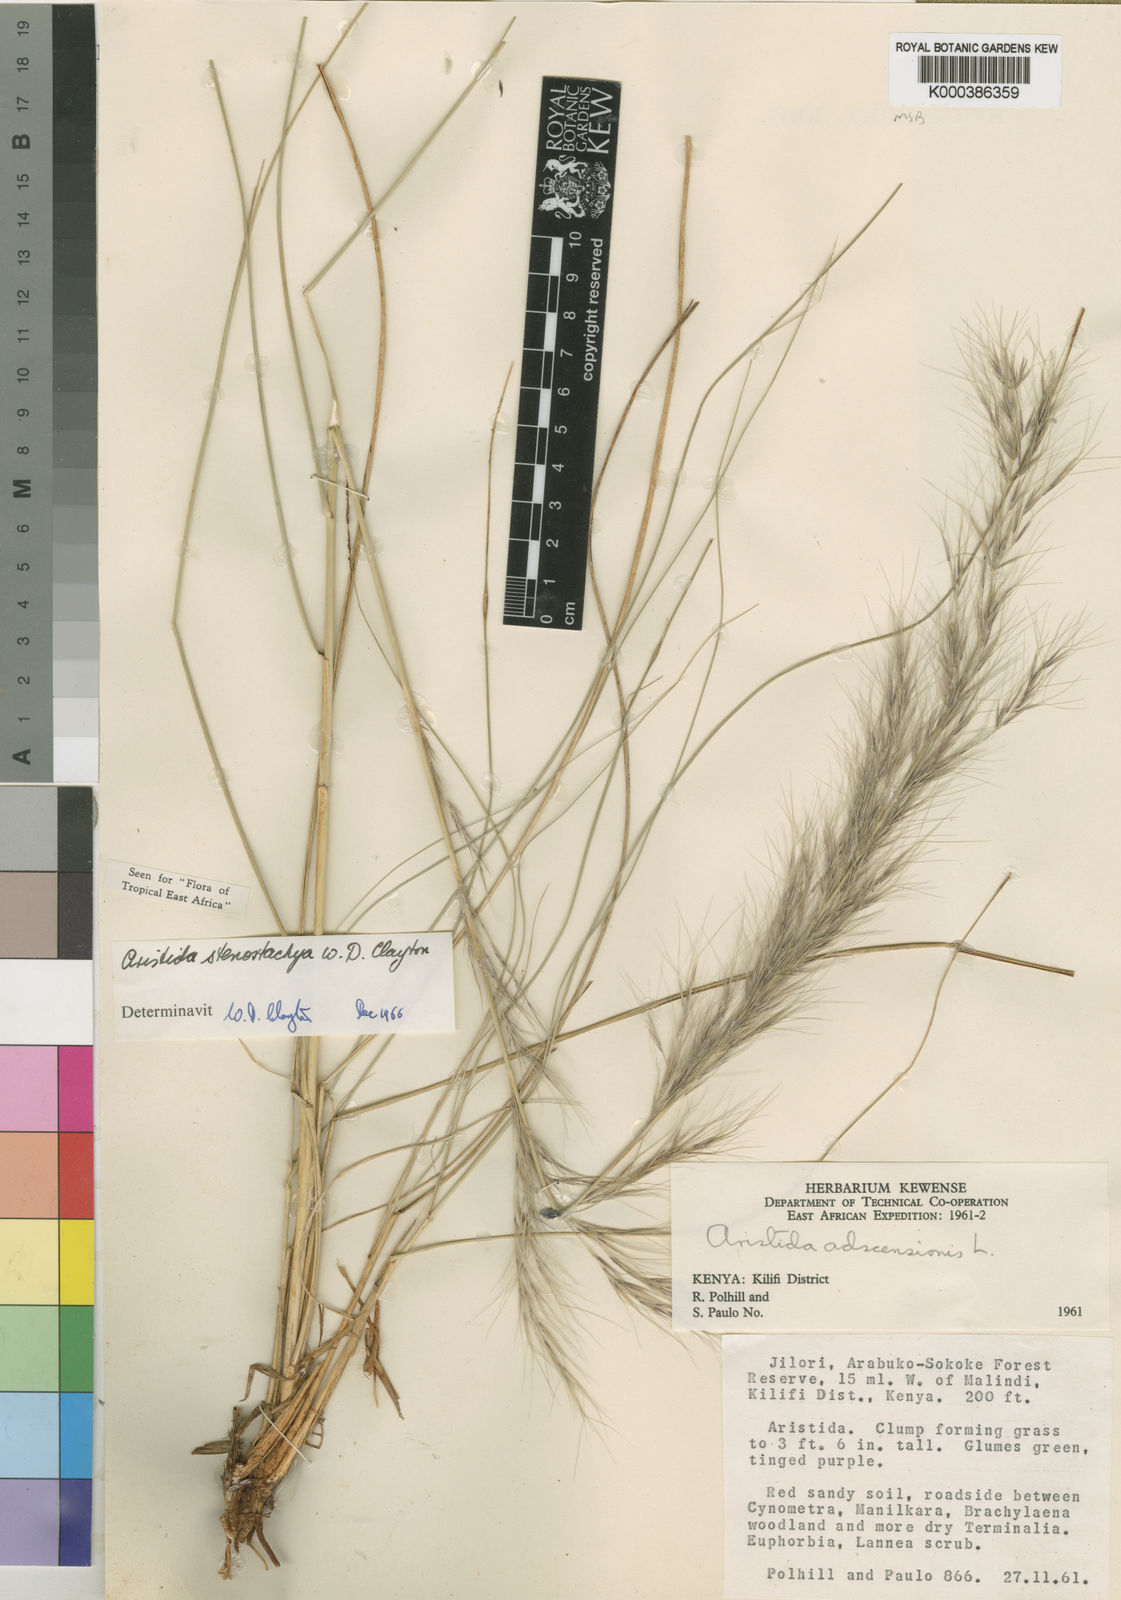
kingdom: Plantae
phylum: Tracheophyta
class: Liliopsida
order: Poales
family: Poaceae
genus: Aristida
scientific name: Aristida stenostachya
